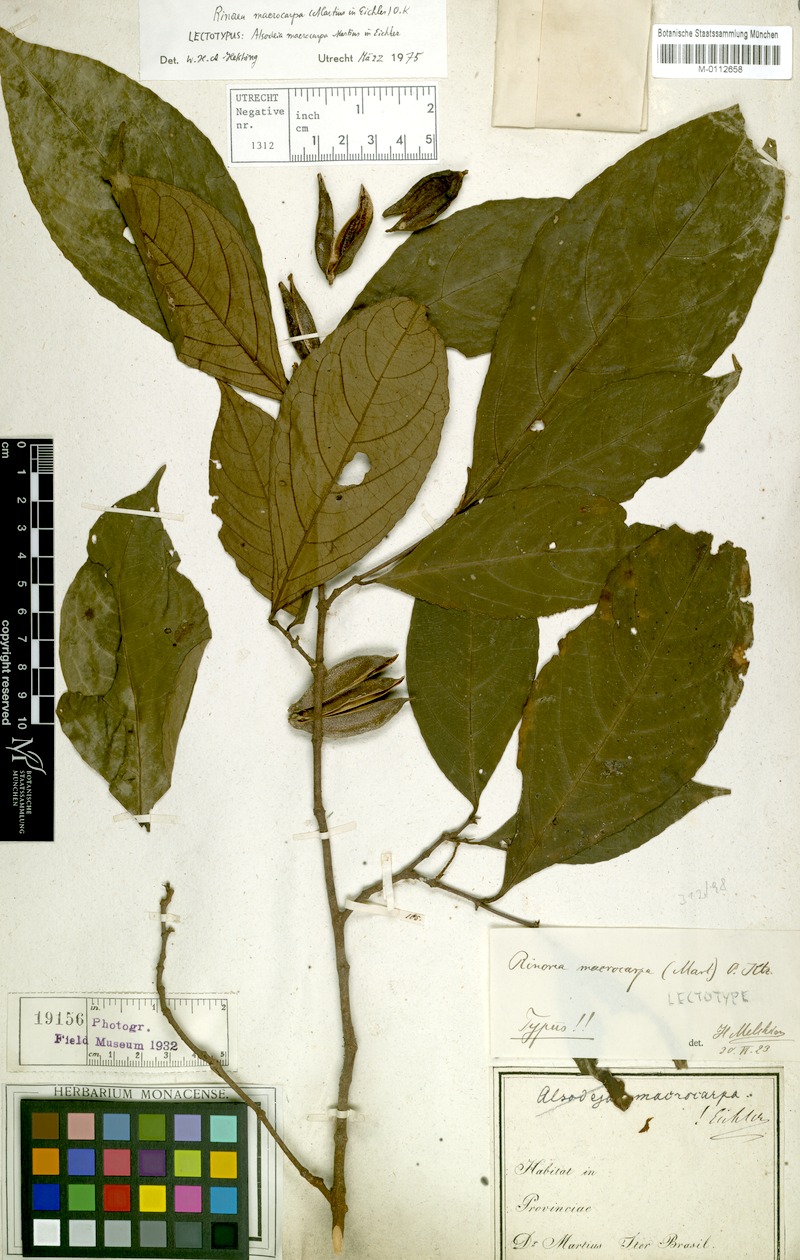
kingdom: Plantae
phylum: Tracheophyta
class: Magnoliopsida
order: Malpighiales
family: Violaceae
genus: Rinorea
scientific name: Rinorea macrocarpa
